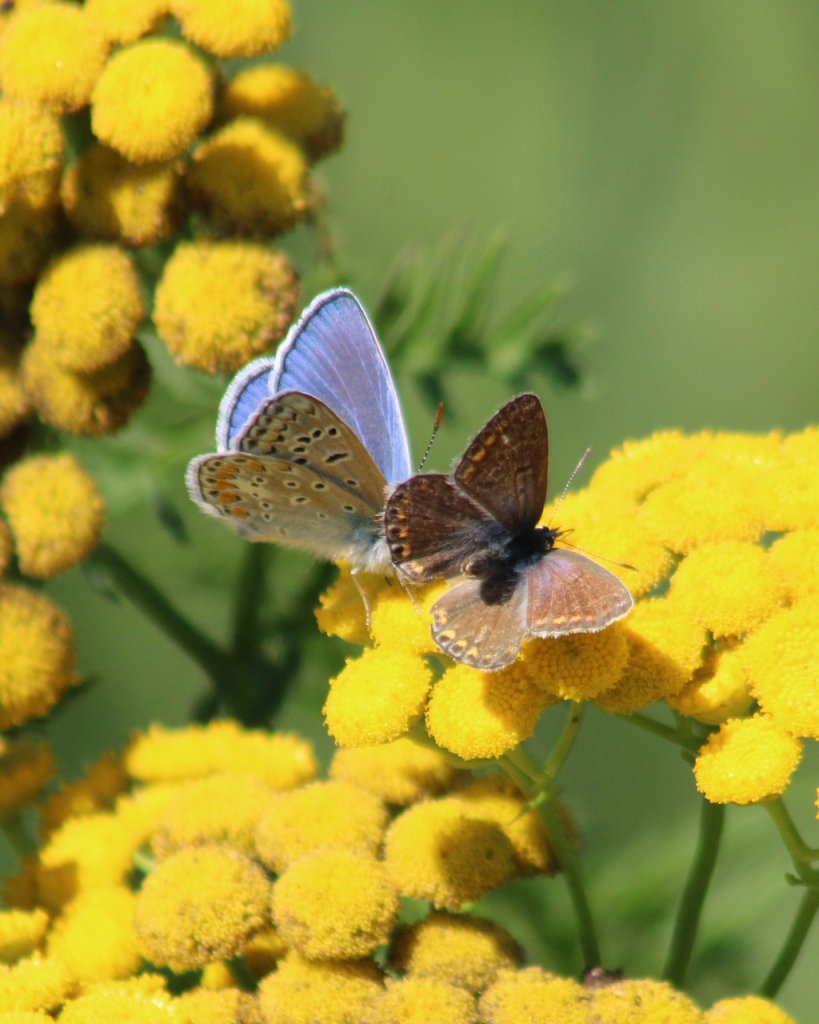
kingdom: Animalia
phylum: Arthropoda
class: Insecta
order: Lepidoptera
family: Lycaenidae
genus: Polyommatus
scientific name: Polyommatus icarus
